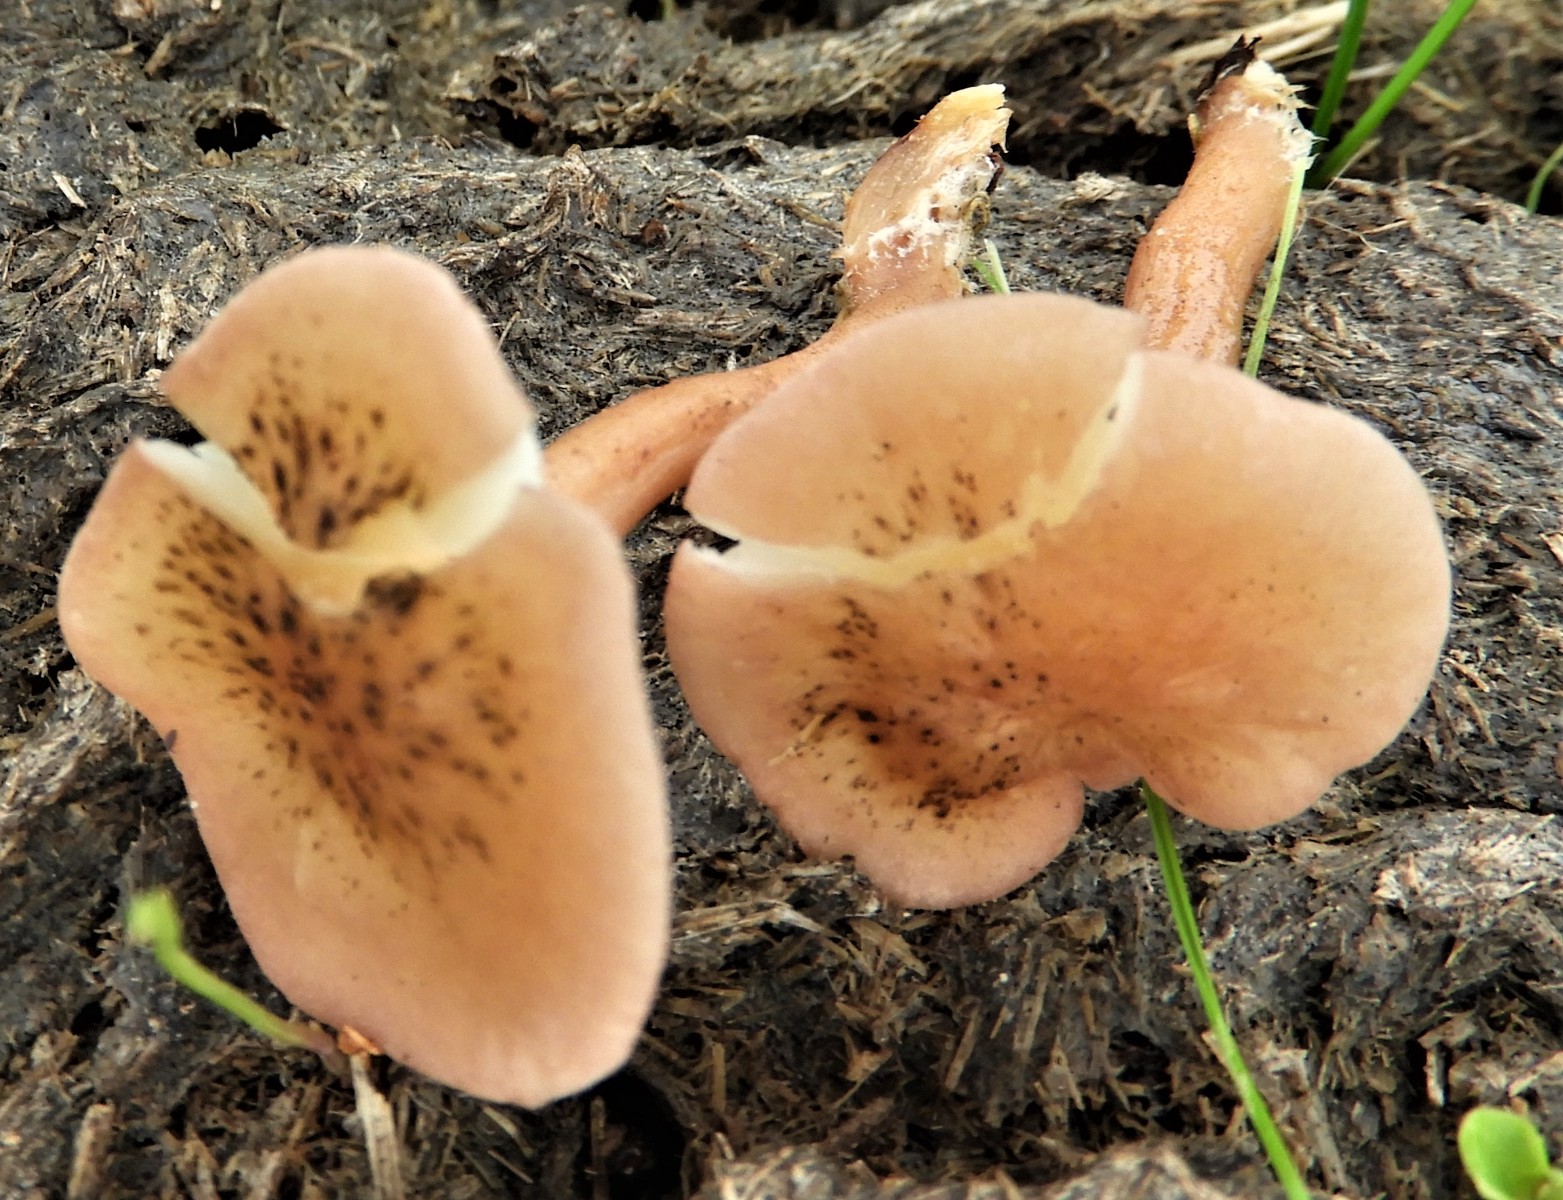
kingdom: Fungi
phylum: Basidiomycota
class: Agaricomycetes
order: Agaricales
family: Lyophyllaceae
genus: Calocybe
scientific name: Calocybe carnea
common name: rosa fagerhat
